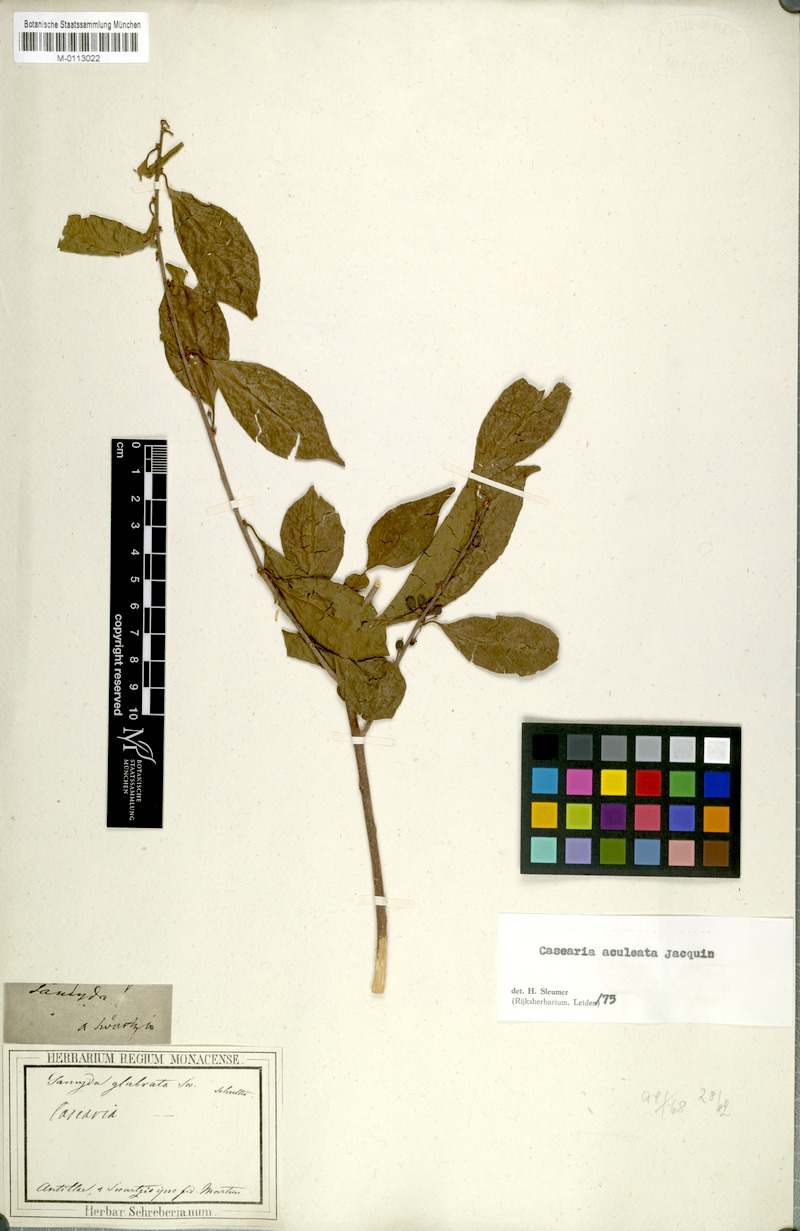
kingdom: Plantae
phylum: Tracheophyta
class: Magnoliopsida
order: Malpighiales
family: Salicaceae
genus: Casearia
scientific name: Casearia aculeata
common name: Cockspur
